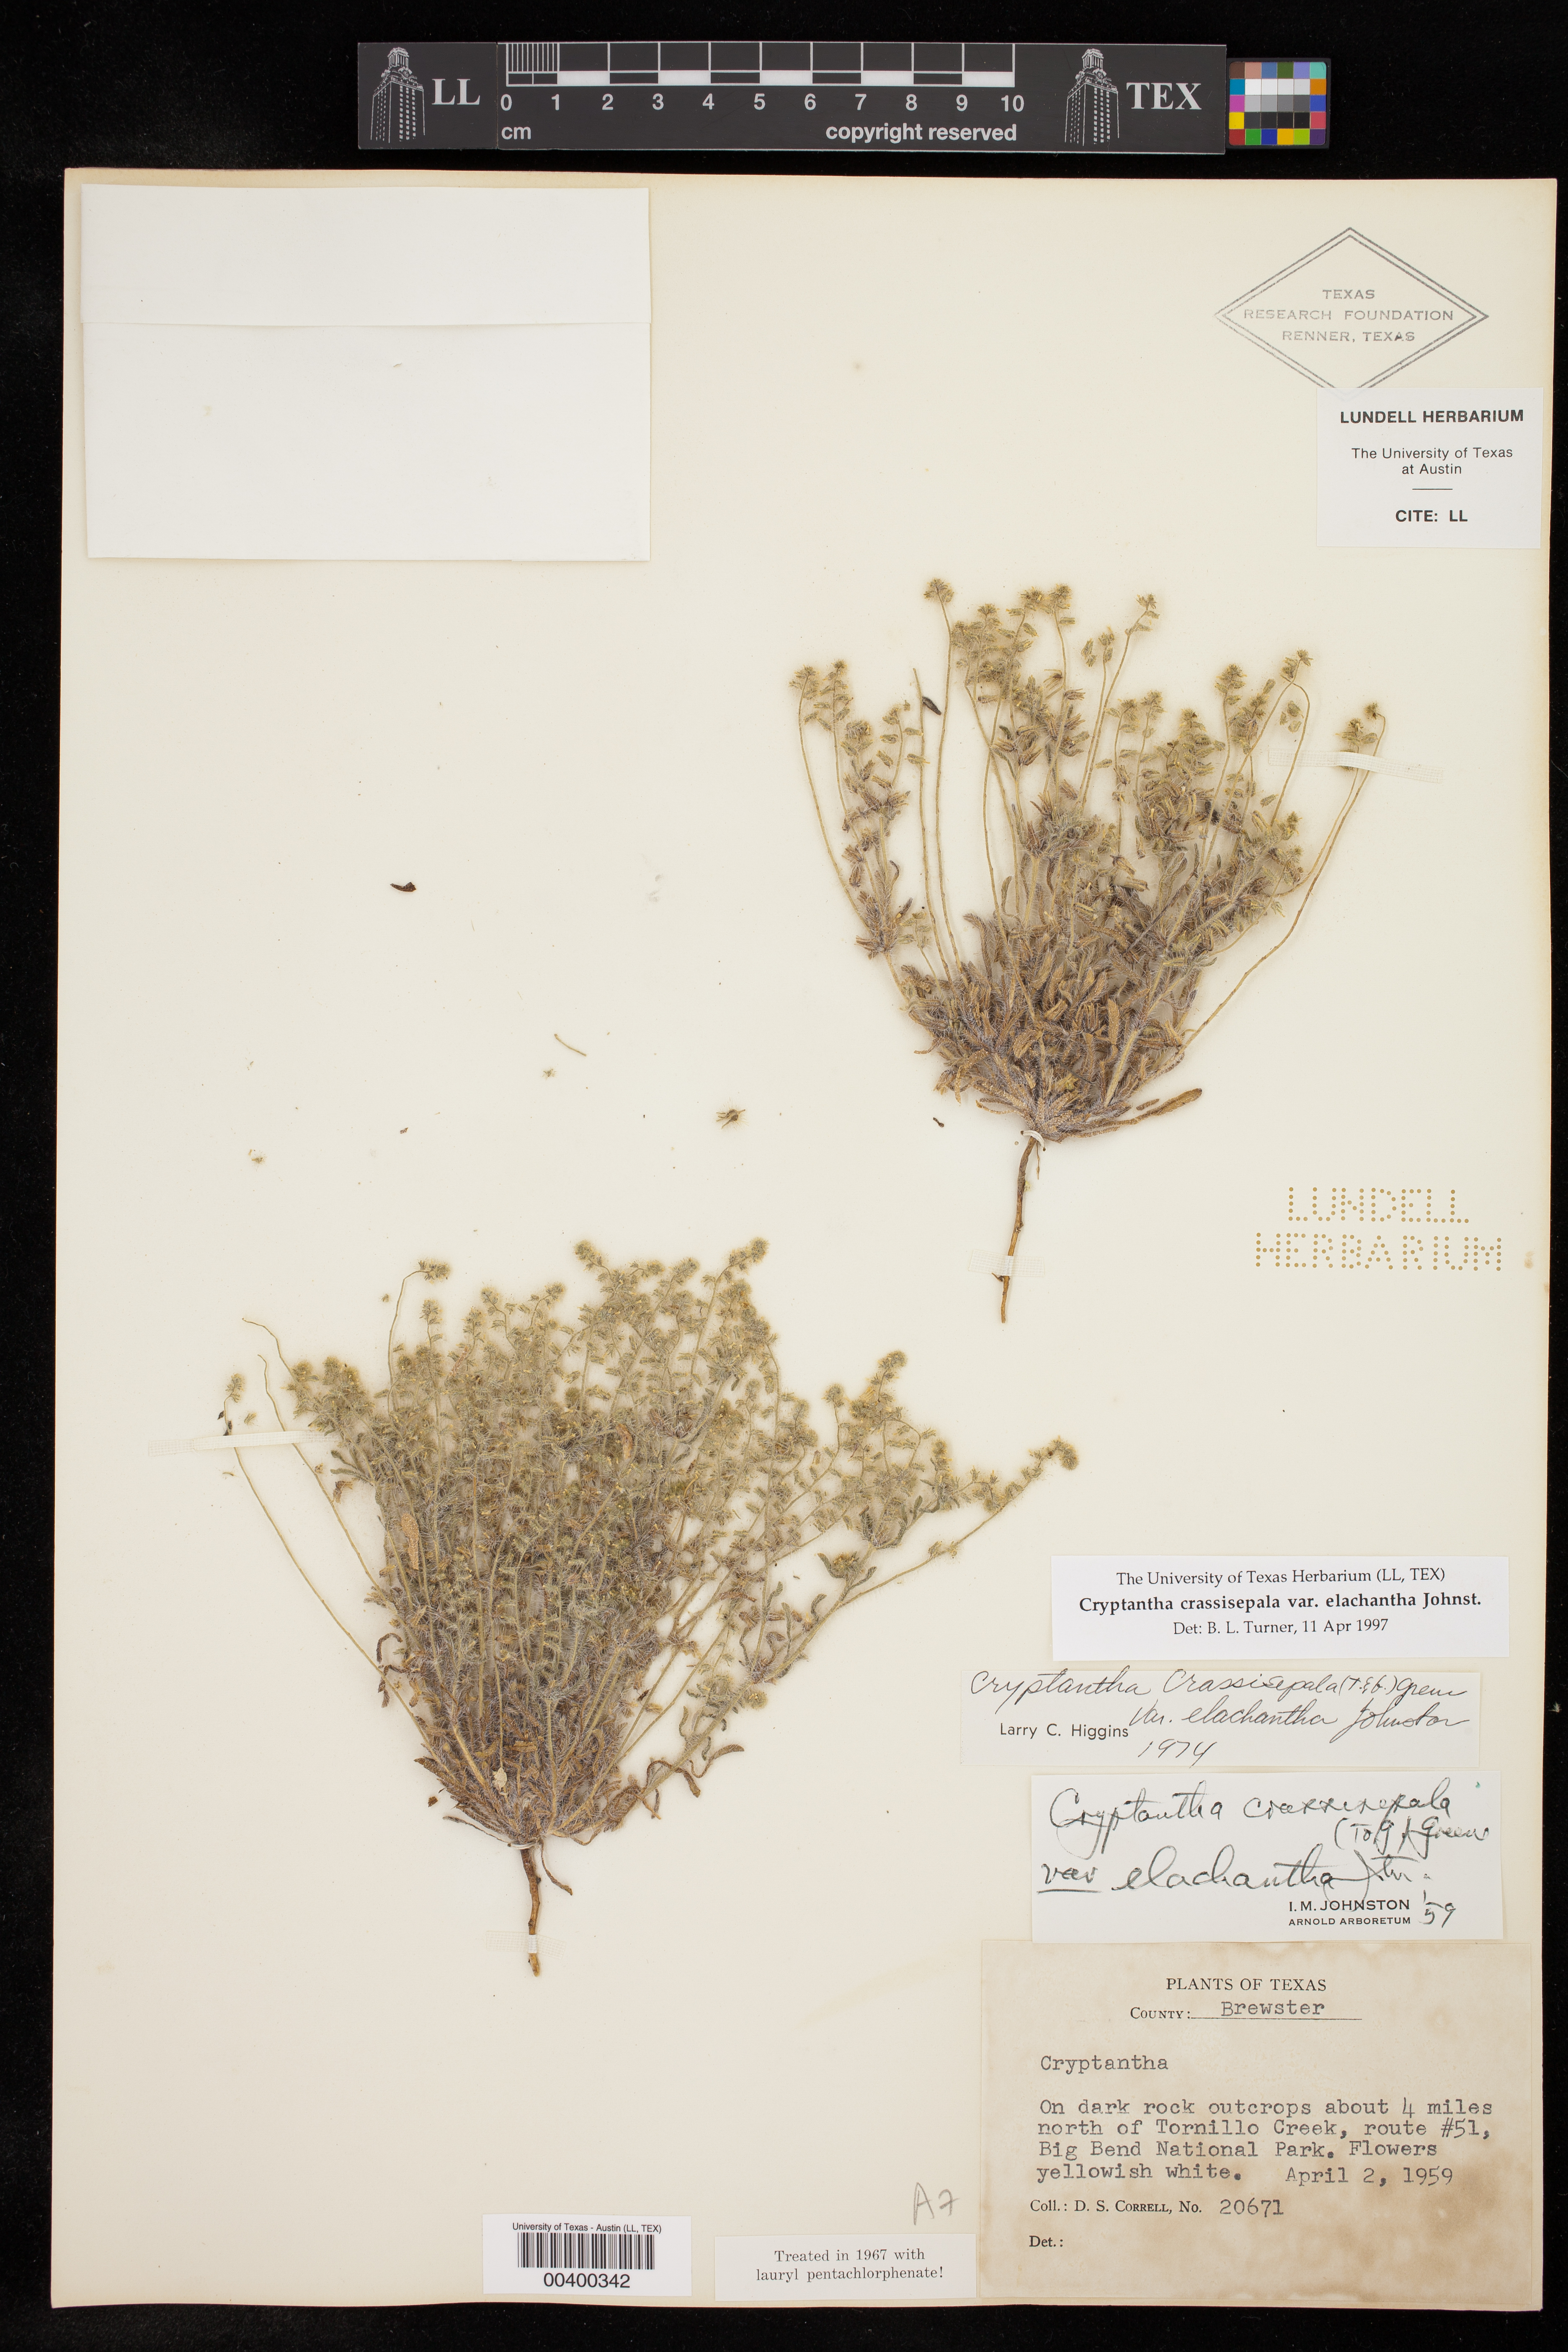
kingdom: Plantae
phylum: Tracheophyta
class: Magnoliopsida
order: Boraginales
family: Boraginaceae
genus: Cryptantha
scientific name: Cryptantha crassisepala
